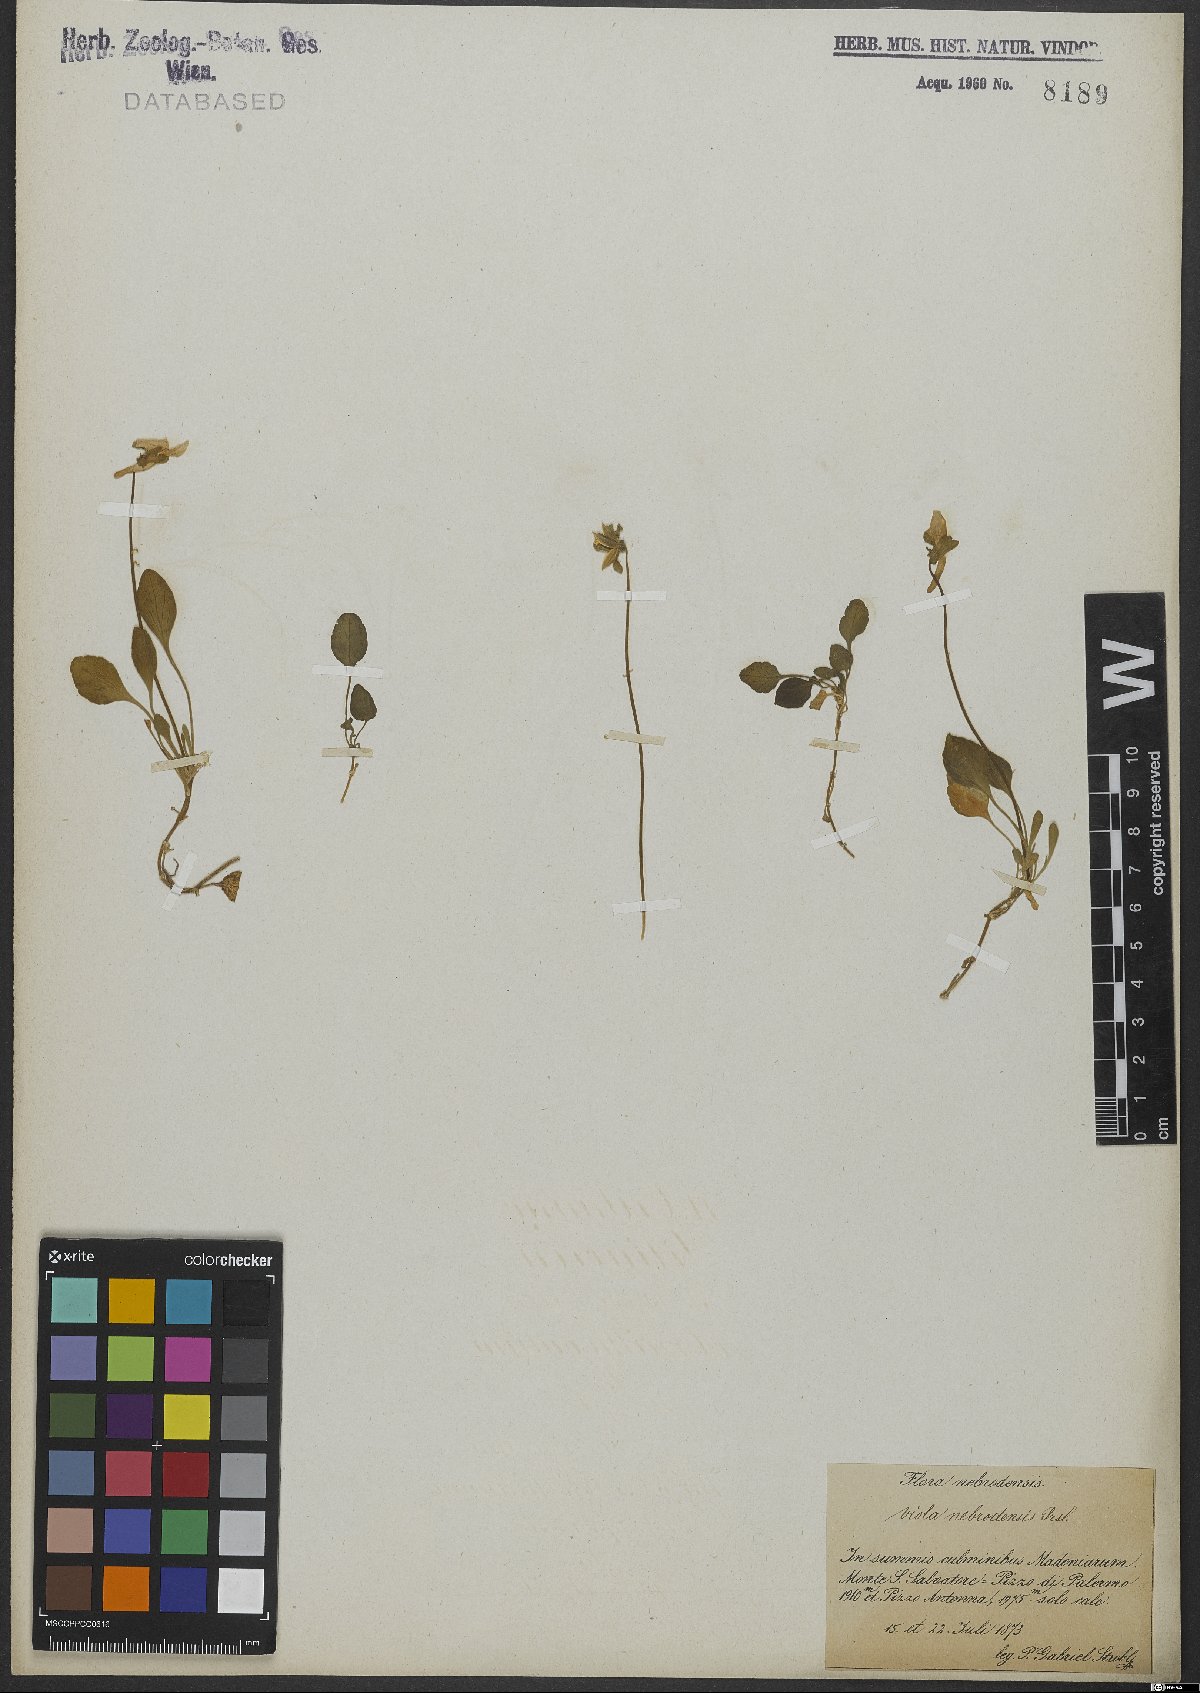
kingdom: Plantae
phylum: Tracheophyta
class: Magnoliopsida
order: Malpighiales
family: Violaceae
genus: Viola
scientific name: Viola nebrodensis
